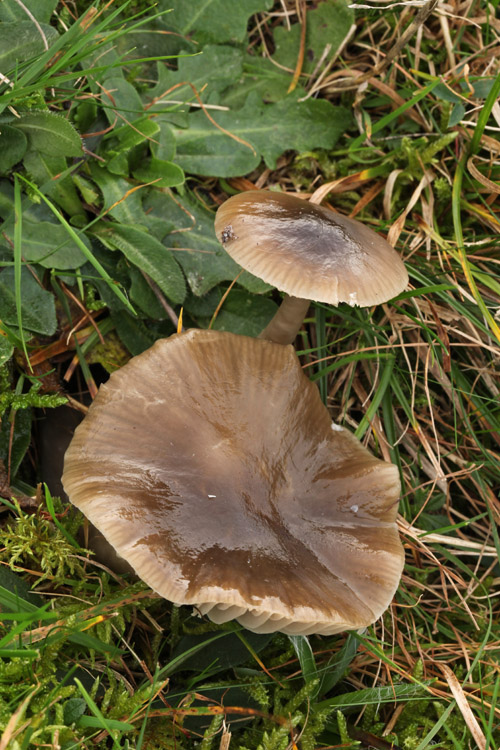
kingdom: Fungi
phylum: Basidiomycota
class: Agaricomycetes
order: Agaricales
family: Hygrophoraceae
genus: Gliophorus
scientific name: Gliophorus irrigatus
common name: slimet vokshat
